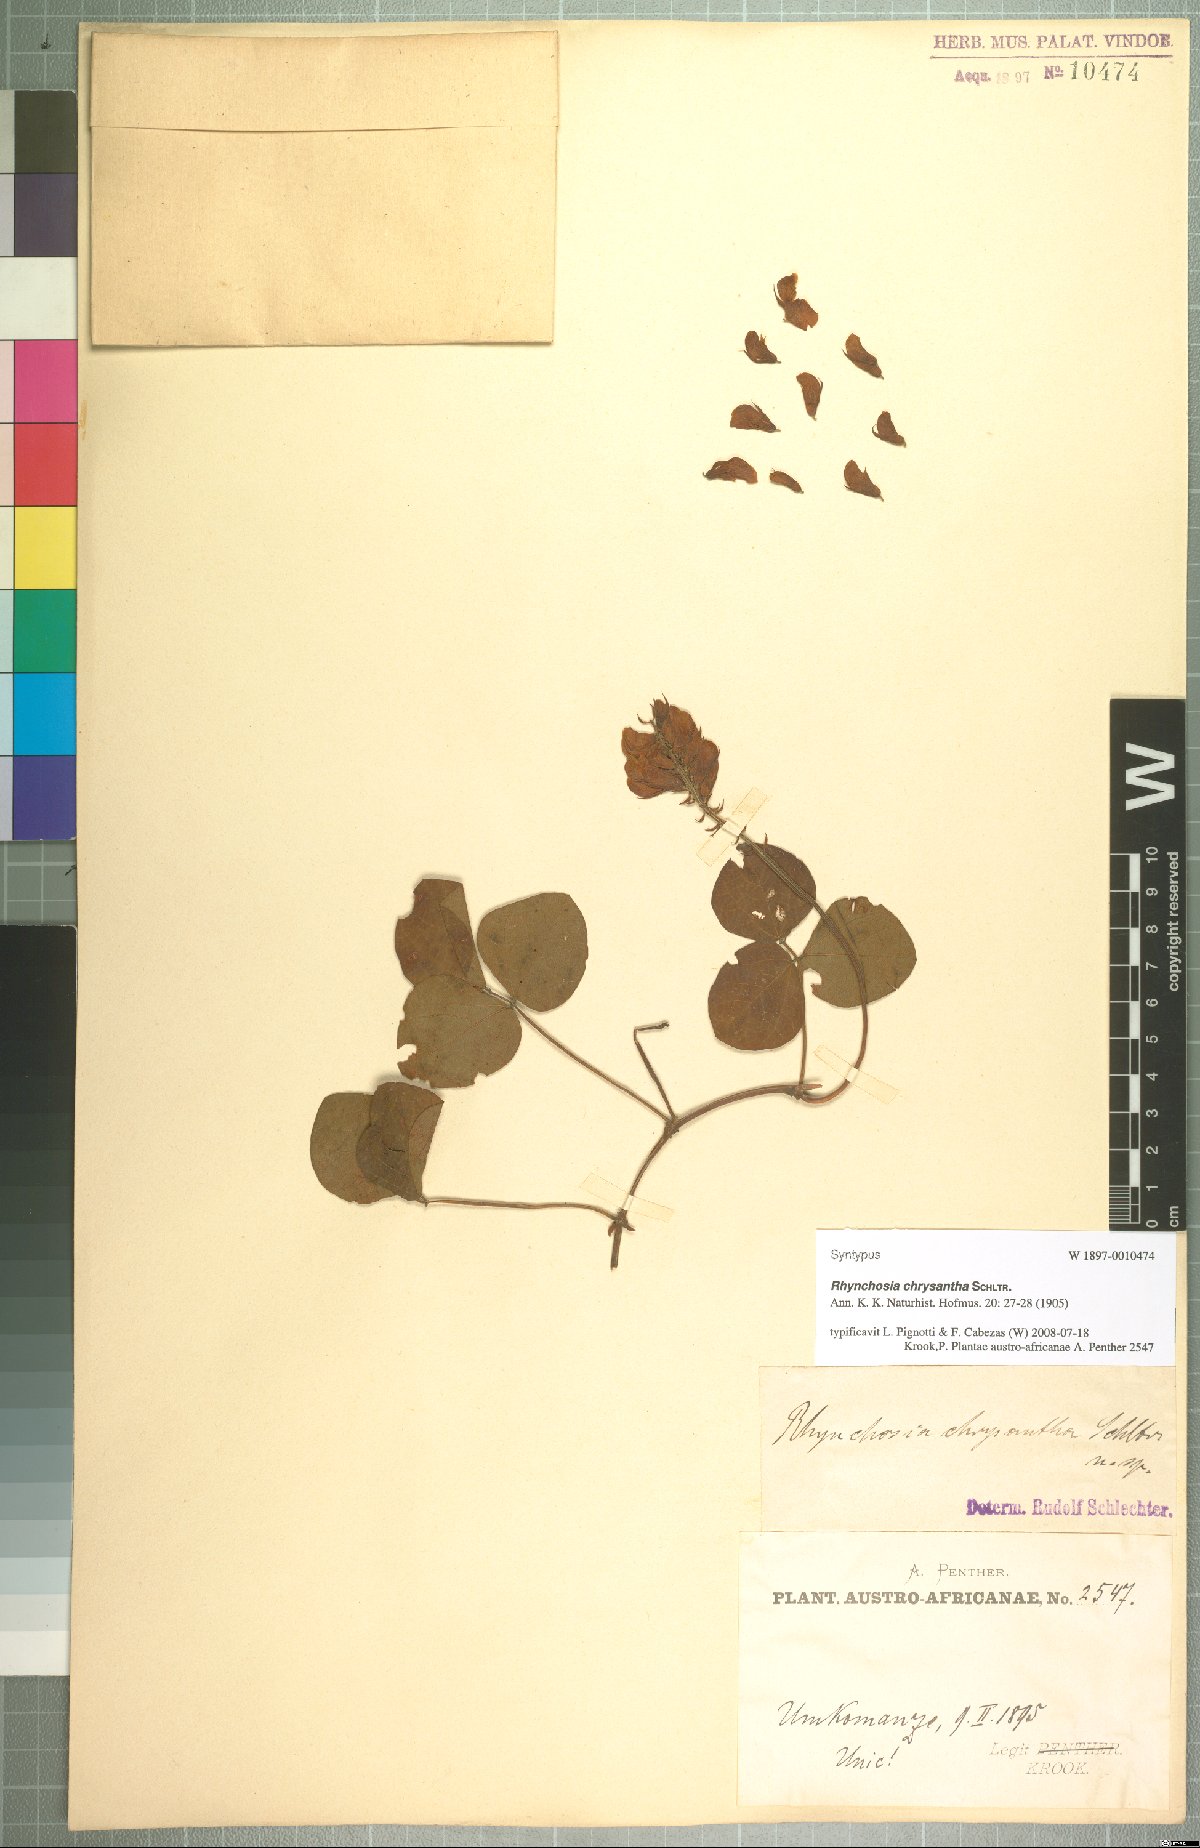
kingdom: Plantae
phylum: Tracheophyta
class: Magnoliopsida
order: Fabales
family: Fabaceae
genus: Rhynchosia
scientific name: Rhynchosia chrysantha
